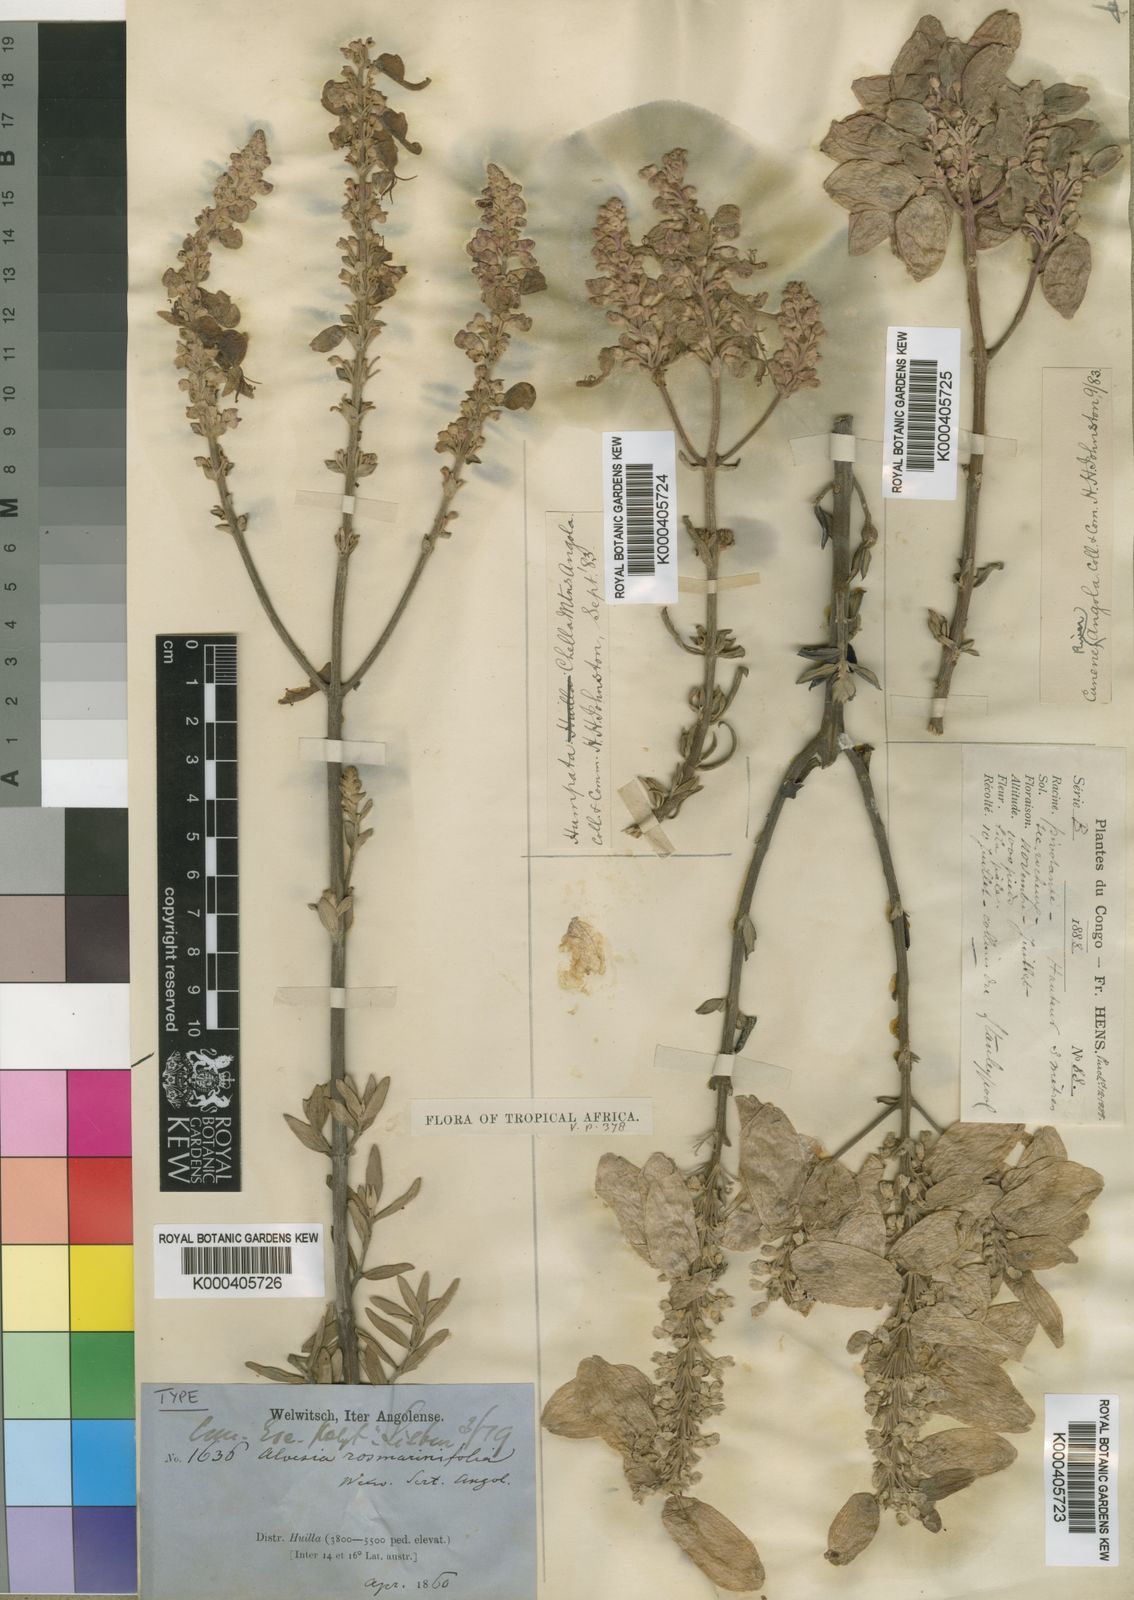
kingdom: Plantae
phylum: Tracheophyta
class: Magnoliopsida
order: Lamiales
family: Lamiaceae
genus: Alvesia
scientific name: Alvesia rosmarinifolia
